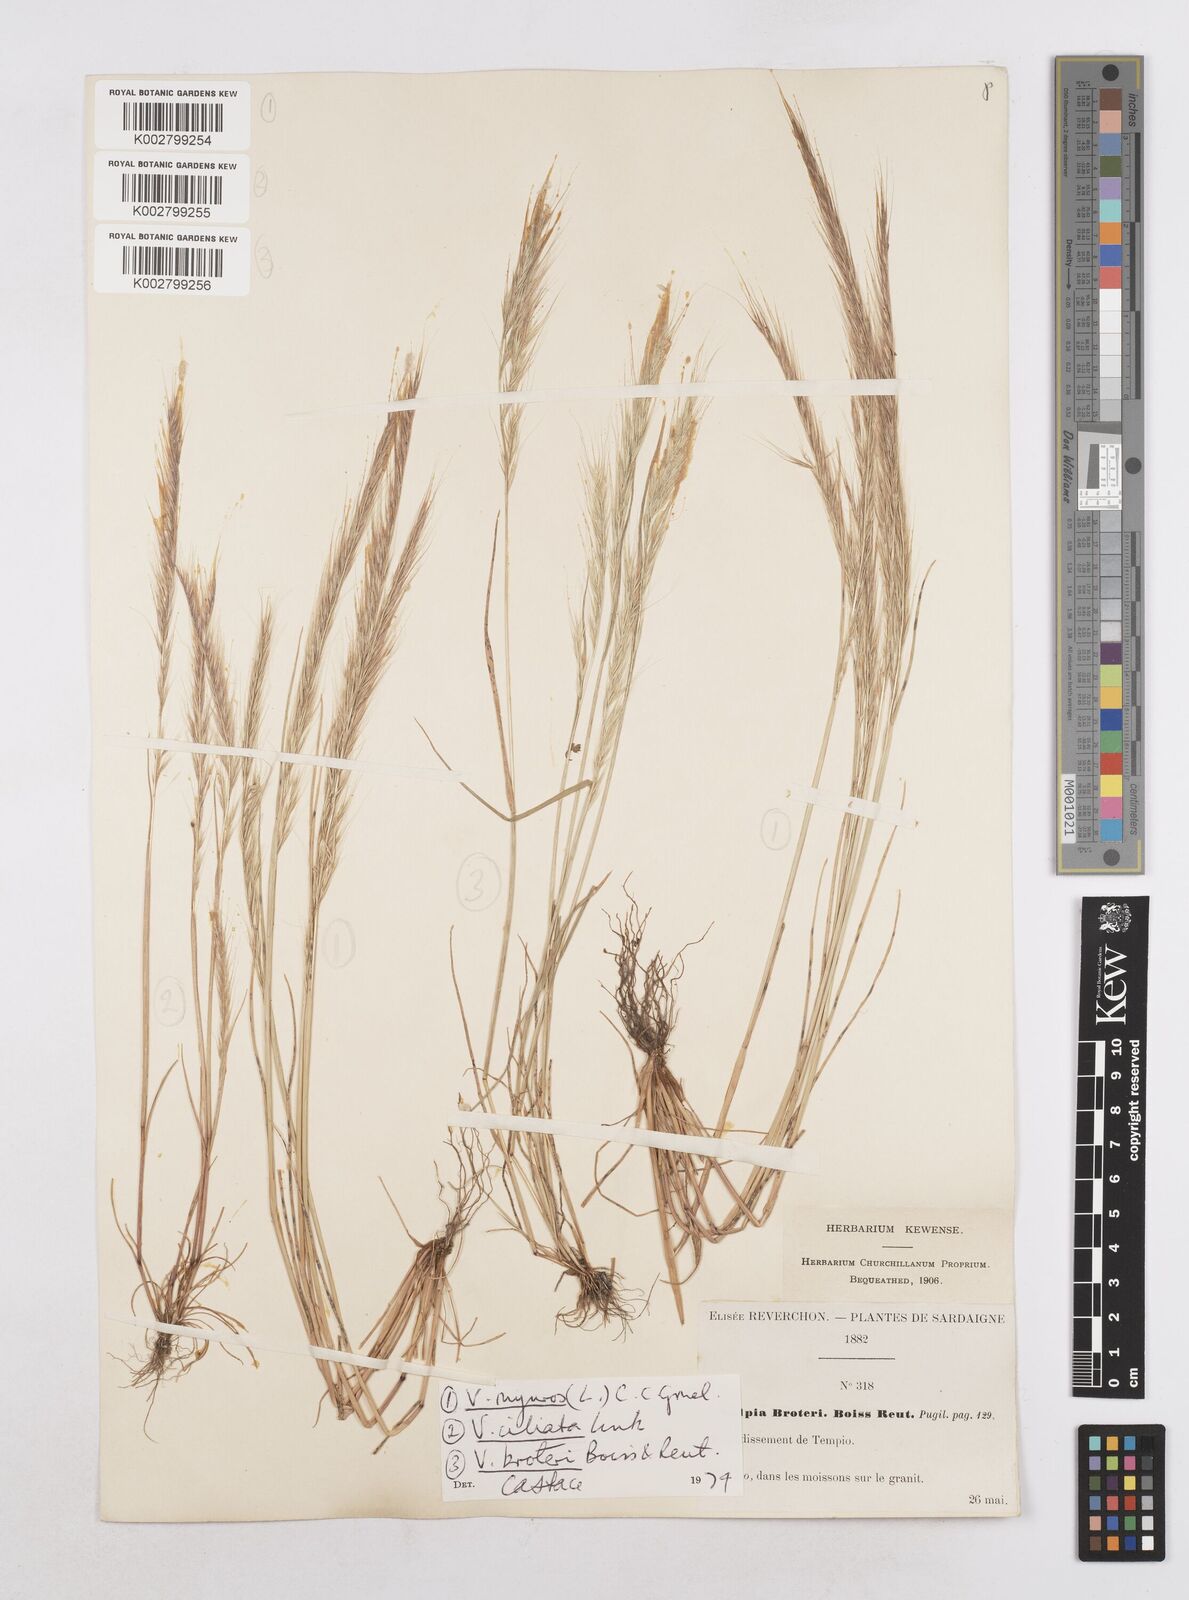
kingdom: Plantae
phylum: Tracheophyta
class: Liliopsida
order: Poales
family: Poaceae
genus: Festuca
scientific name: Festuca muralis
